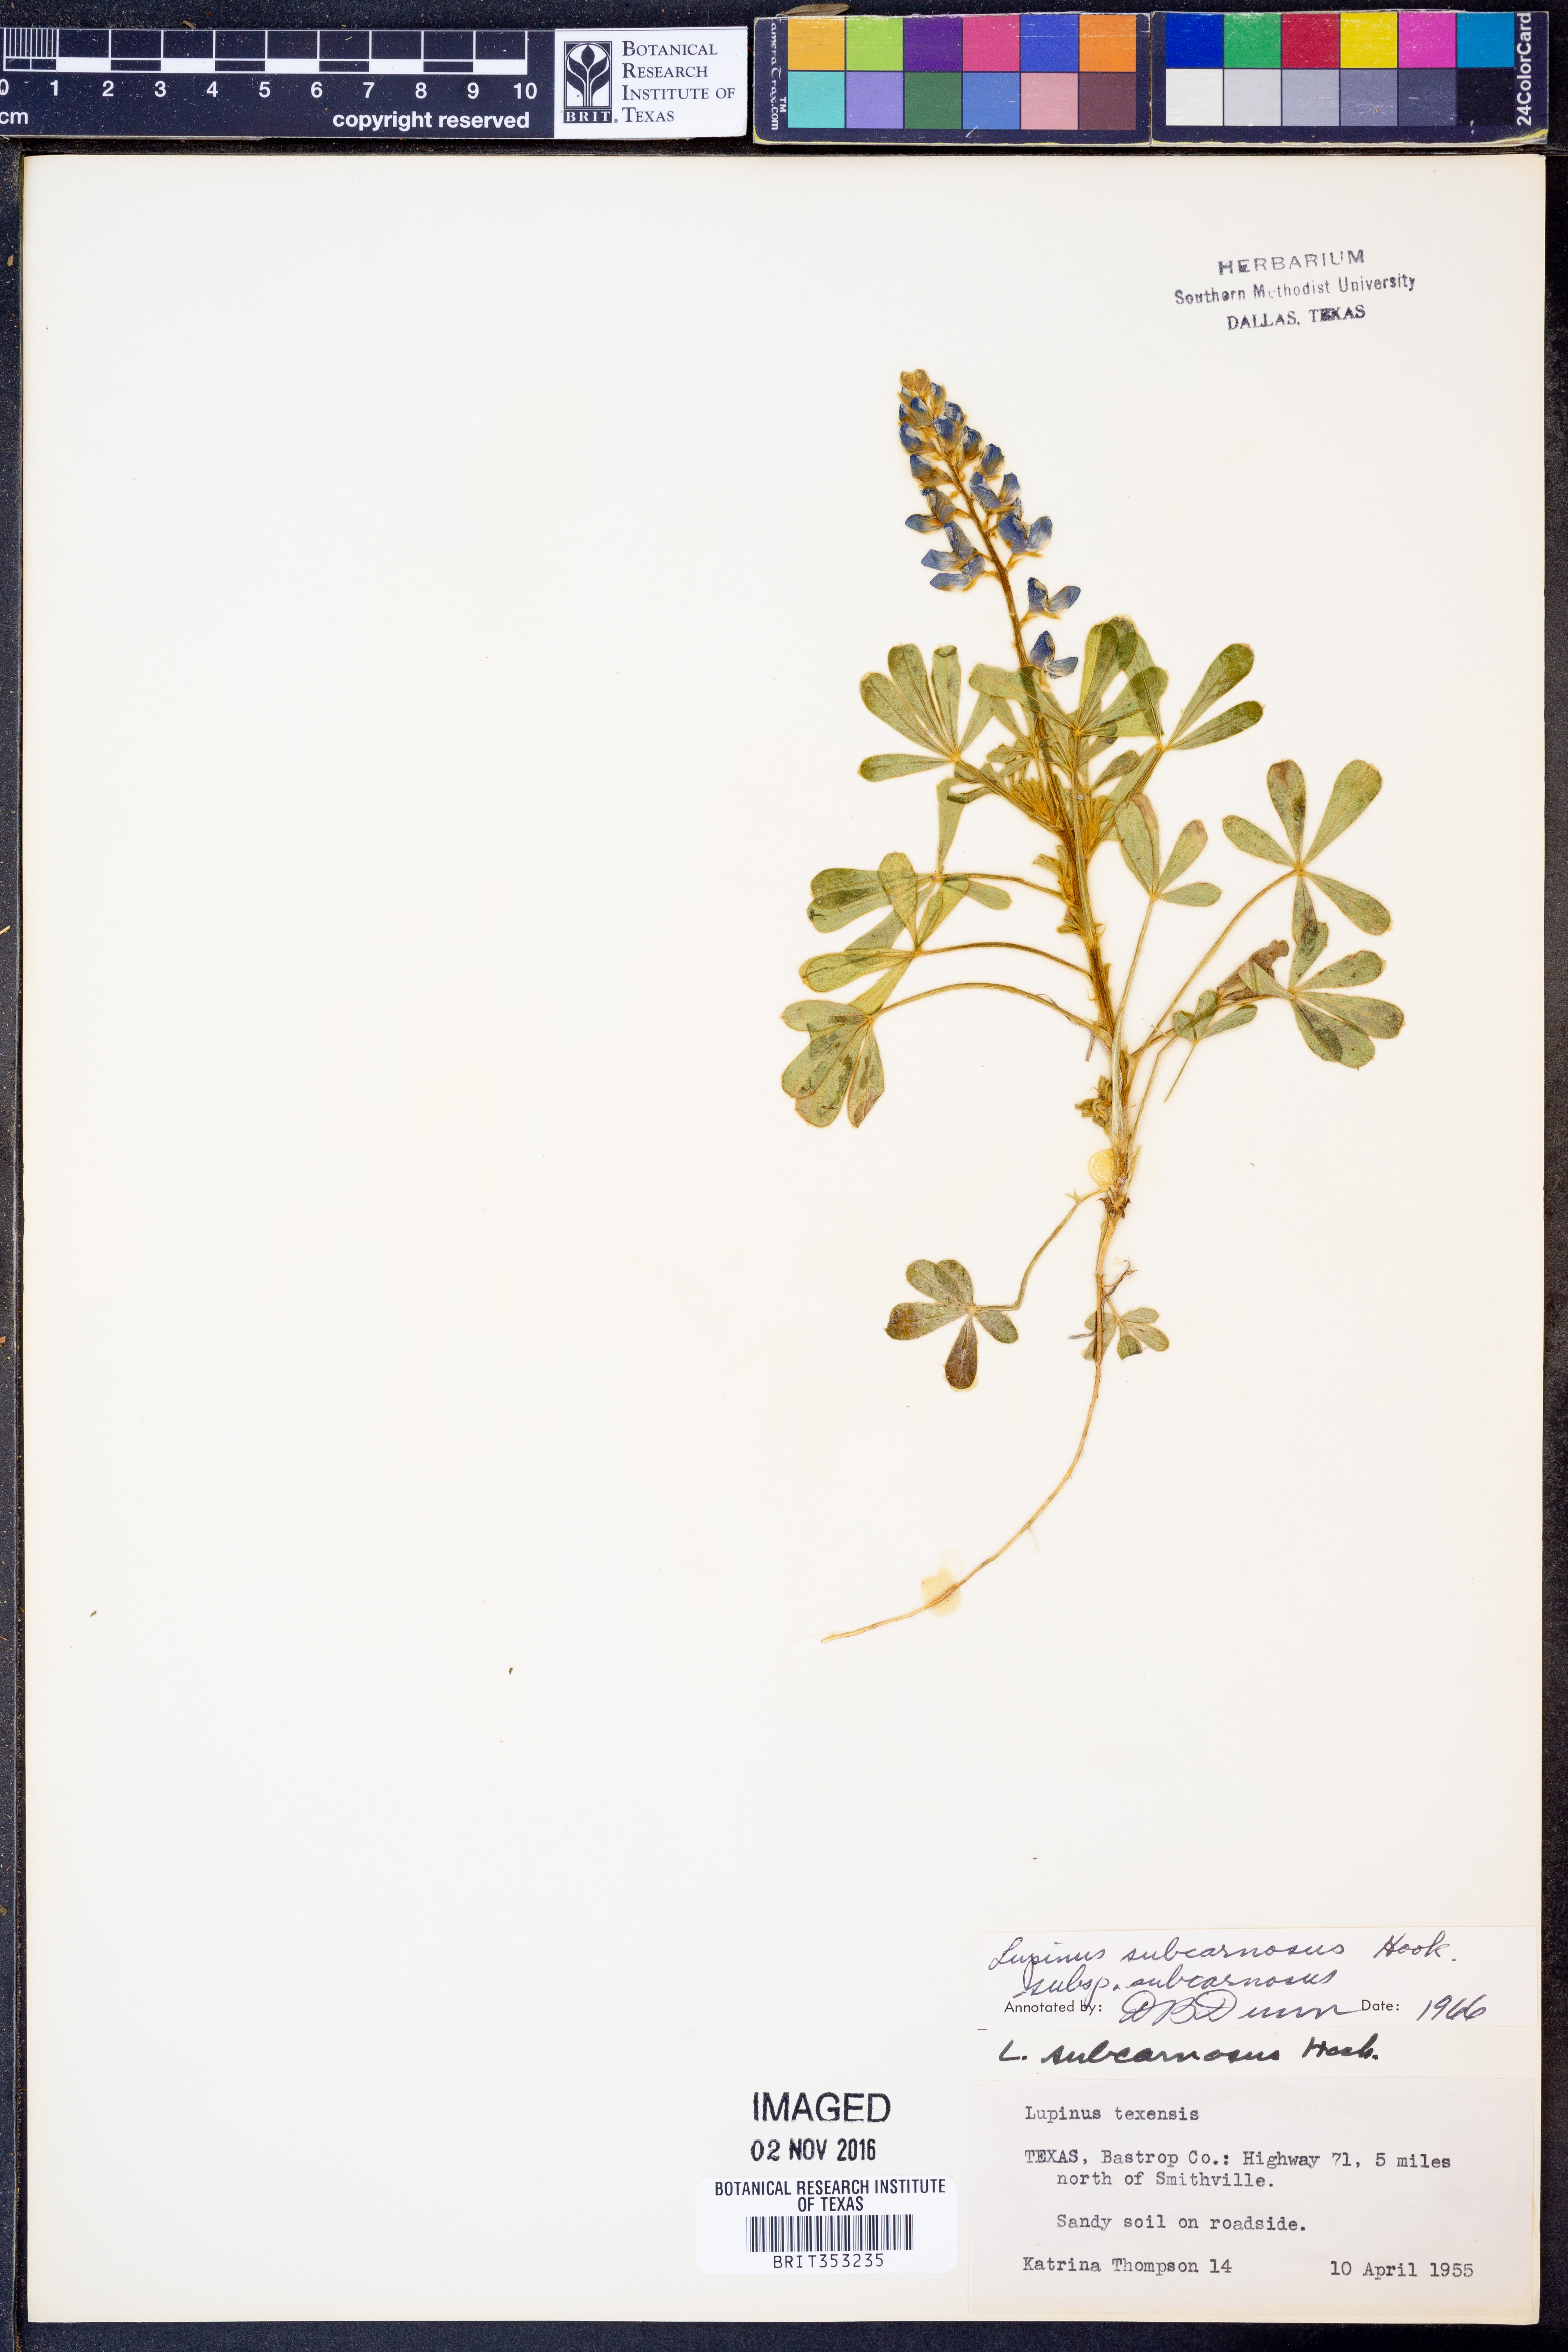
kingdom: Plantae
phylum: Tracheophyta
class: Magnoliopsida
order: Fabales
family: Fabaceae
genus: Lupinus
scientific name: Lupinus subcarnosus
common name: Texas bluebonnet
